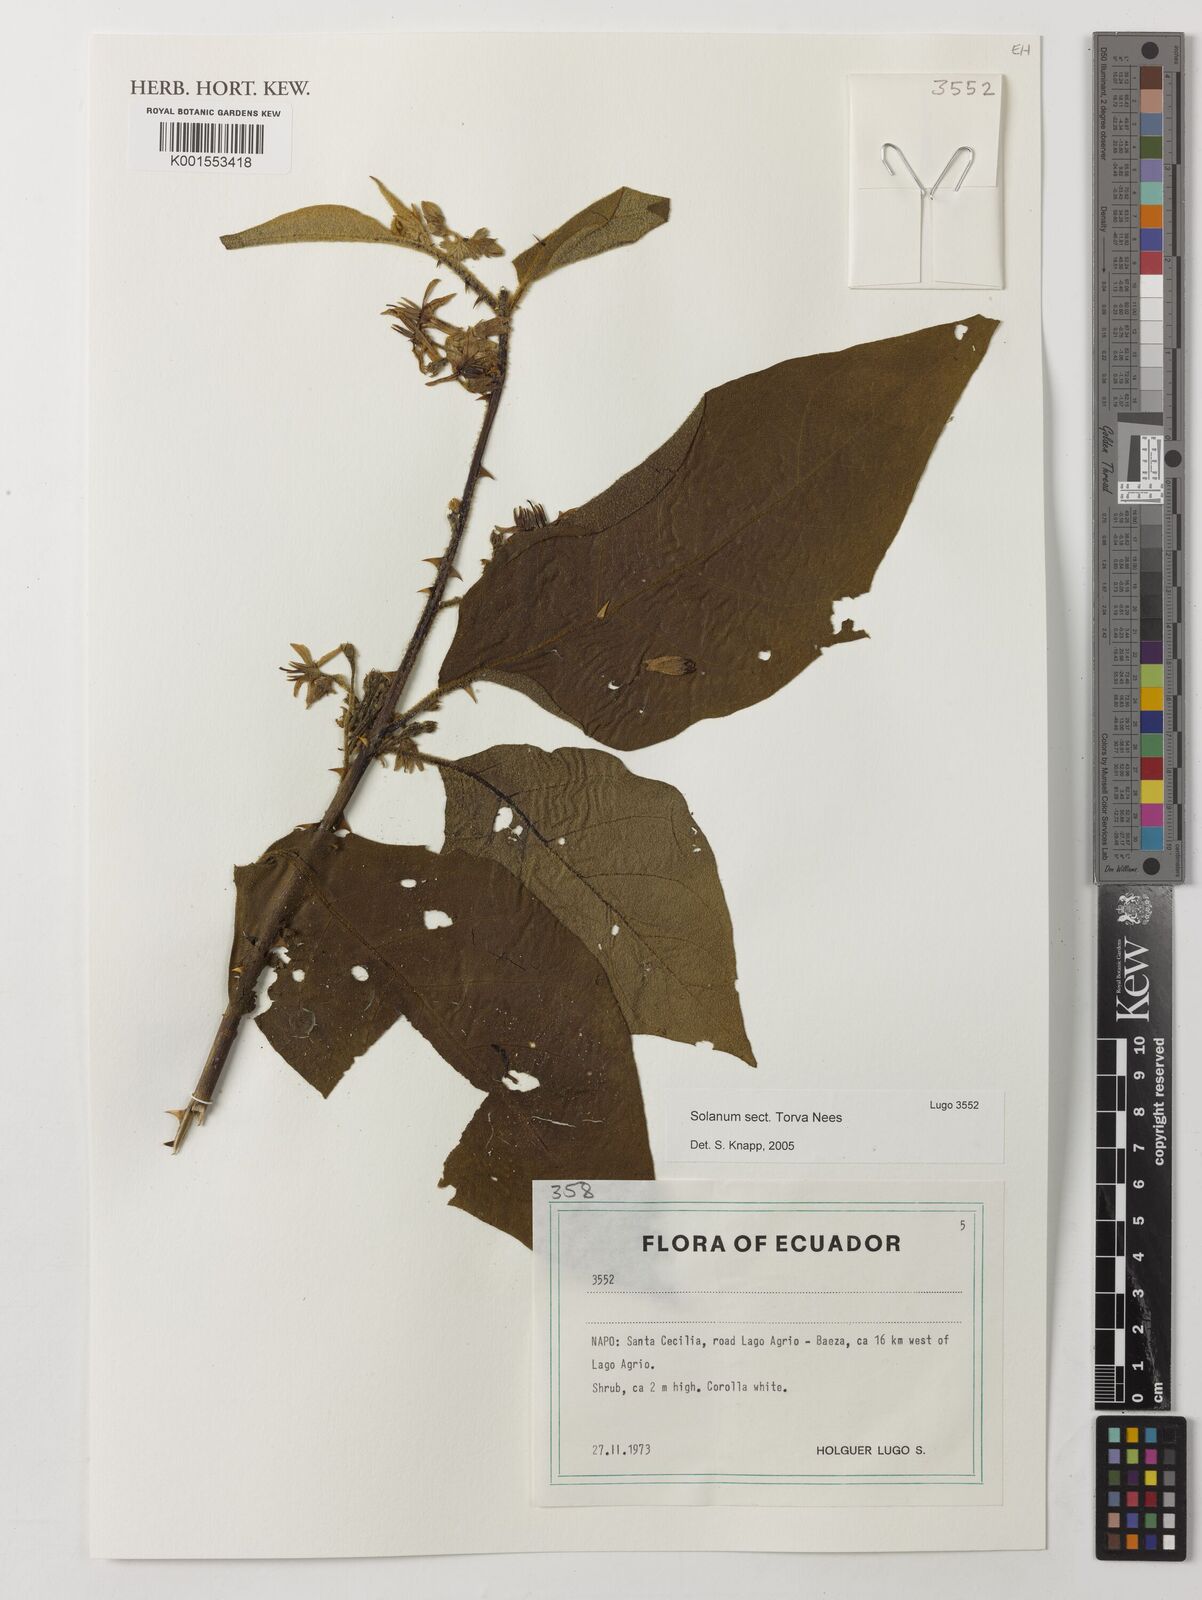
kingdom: Plantae
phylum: Tracheophyta
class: Magnoliopsida
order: Solanales
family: Solanaceae
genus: Solanum
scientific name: Solanum
